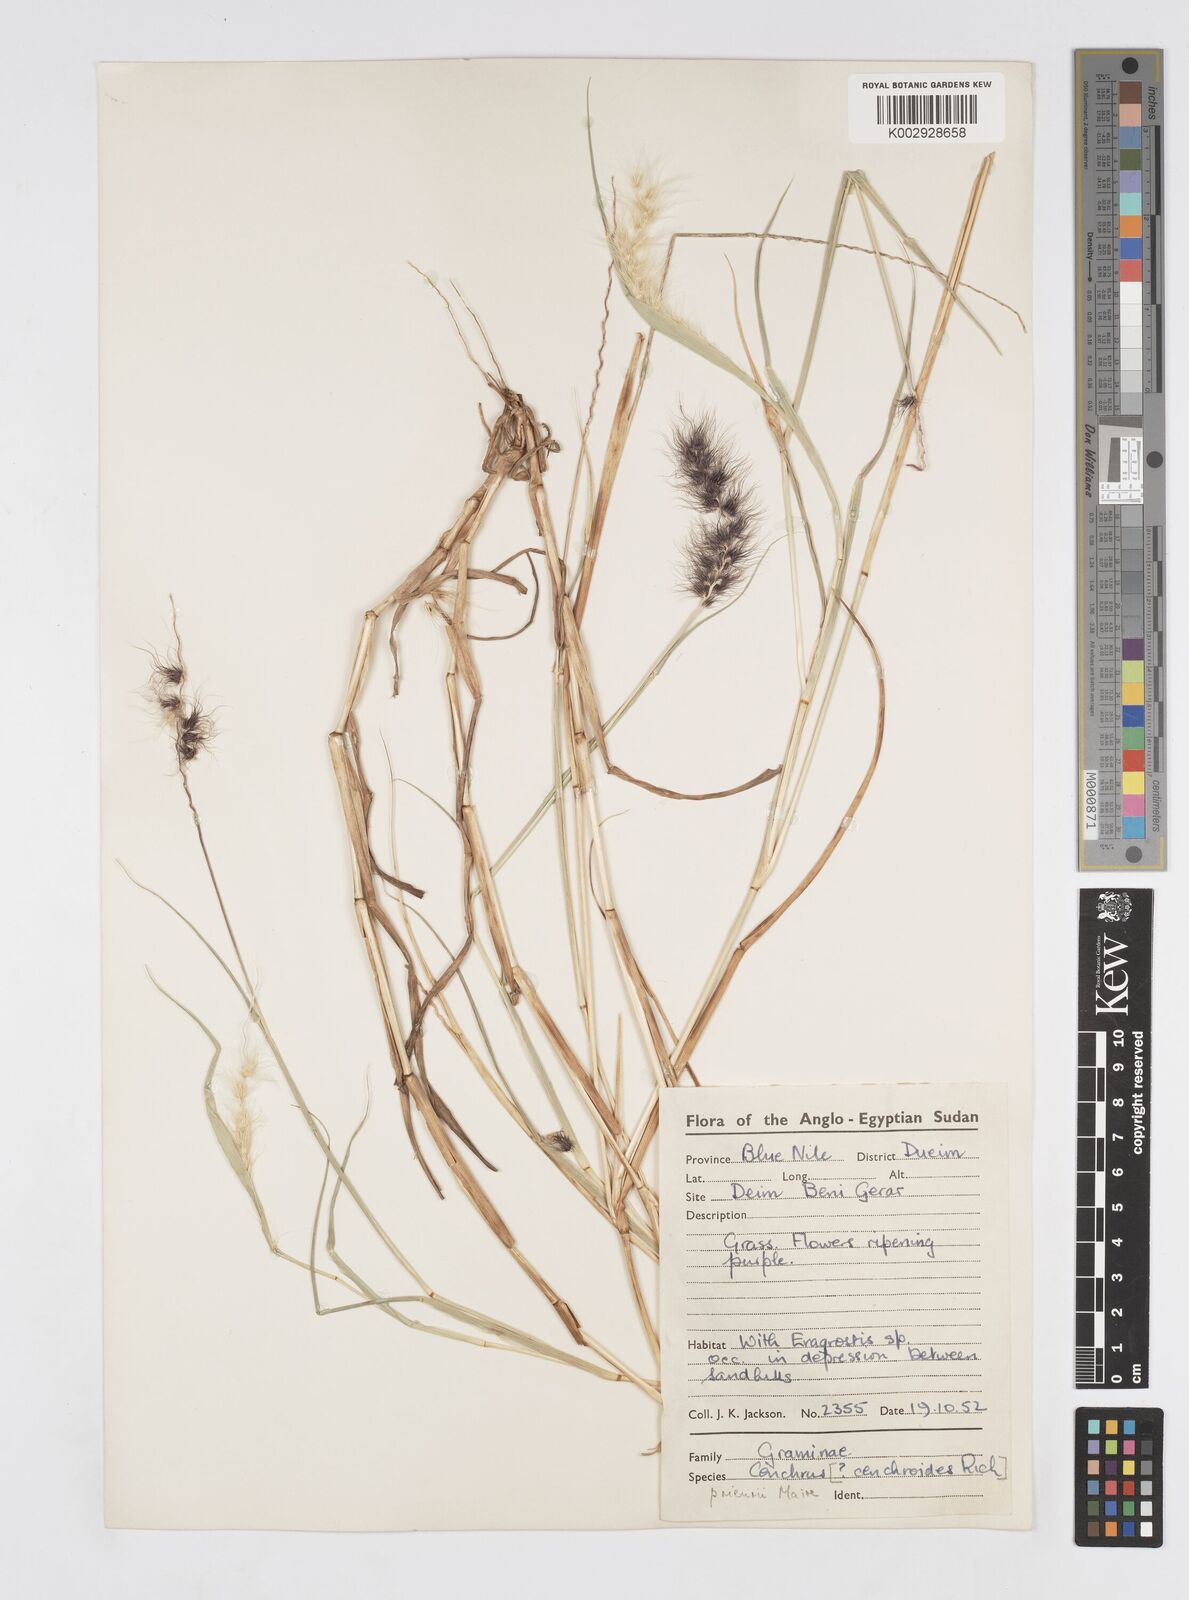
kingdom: Plantae
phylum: Tracheophyta
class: Liliopsida
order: Poales
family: Poaceae
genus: Cenchrus
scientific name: Cenchrus prieurii
